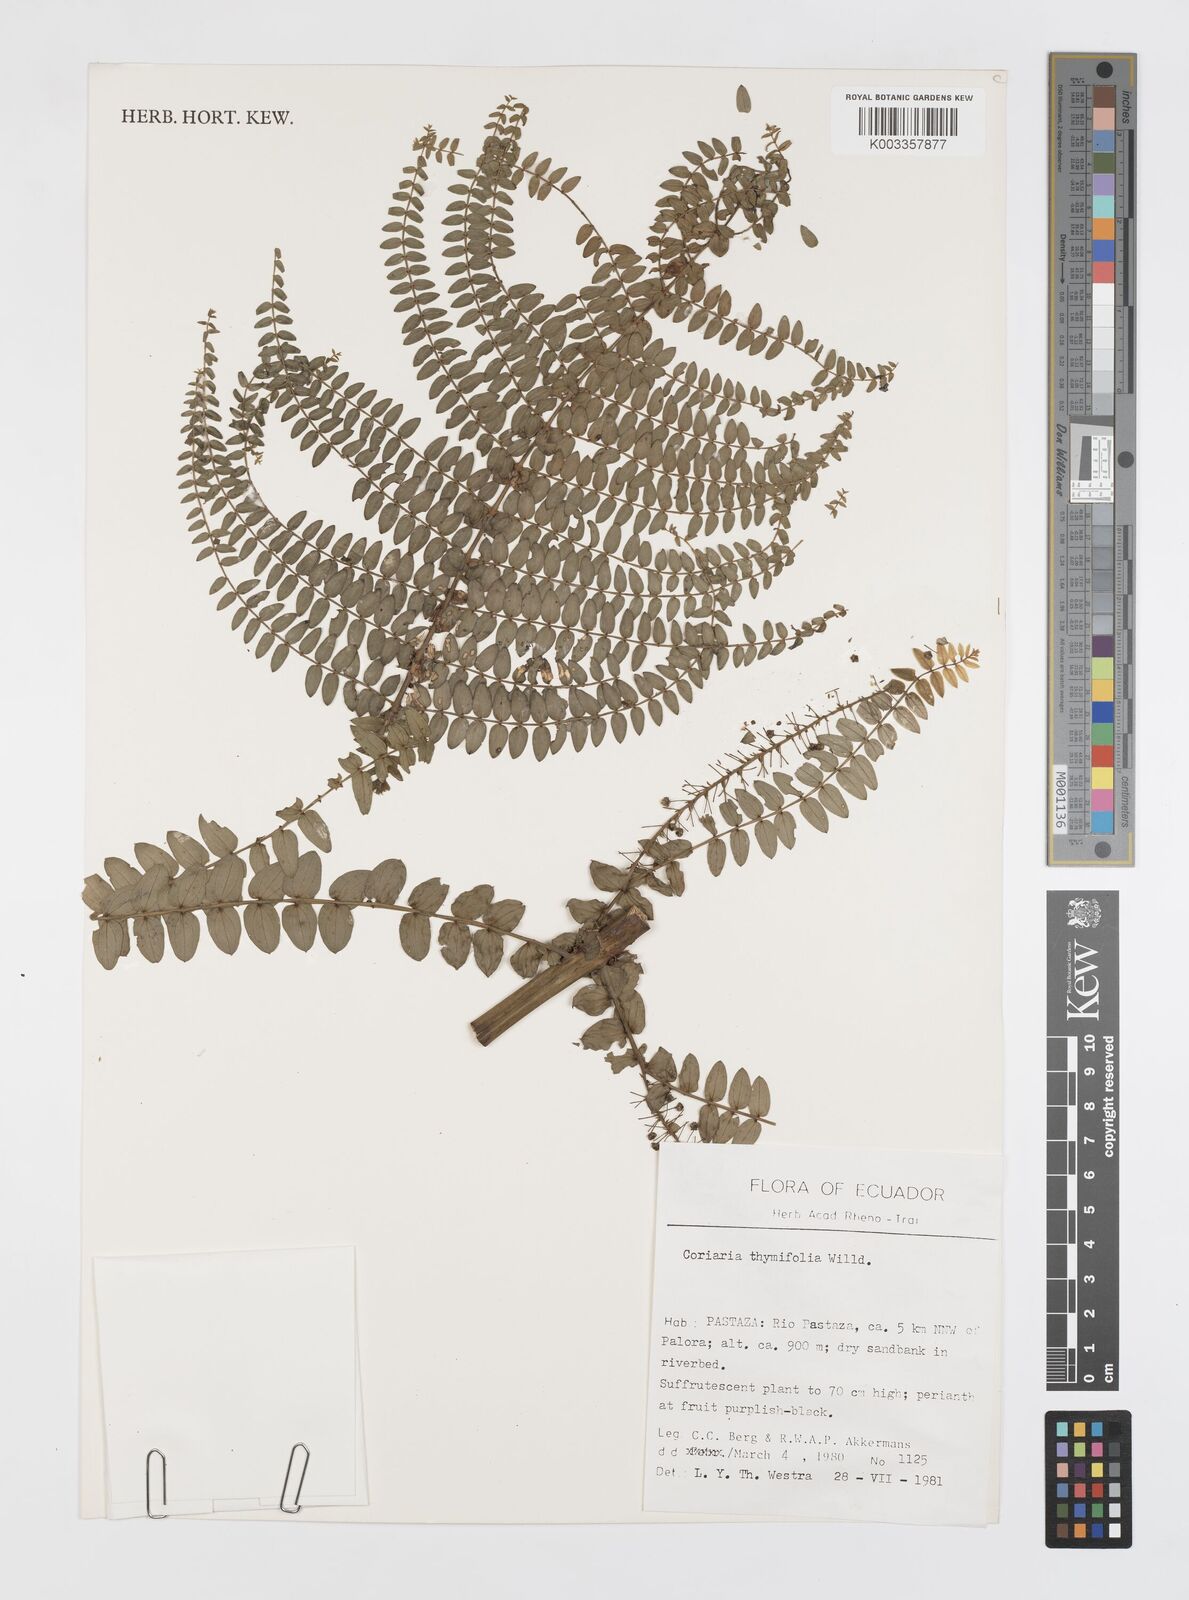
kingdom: Plantae
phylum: Tracheophyta
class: Magnoliopsida
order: Cucurbitales
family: Coriariaceae
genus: Coriaria
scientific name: Coriaria microphylla
